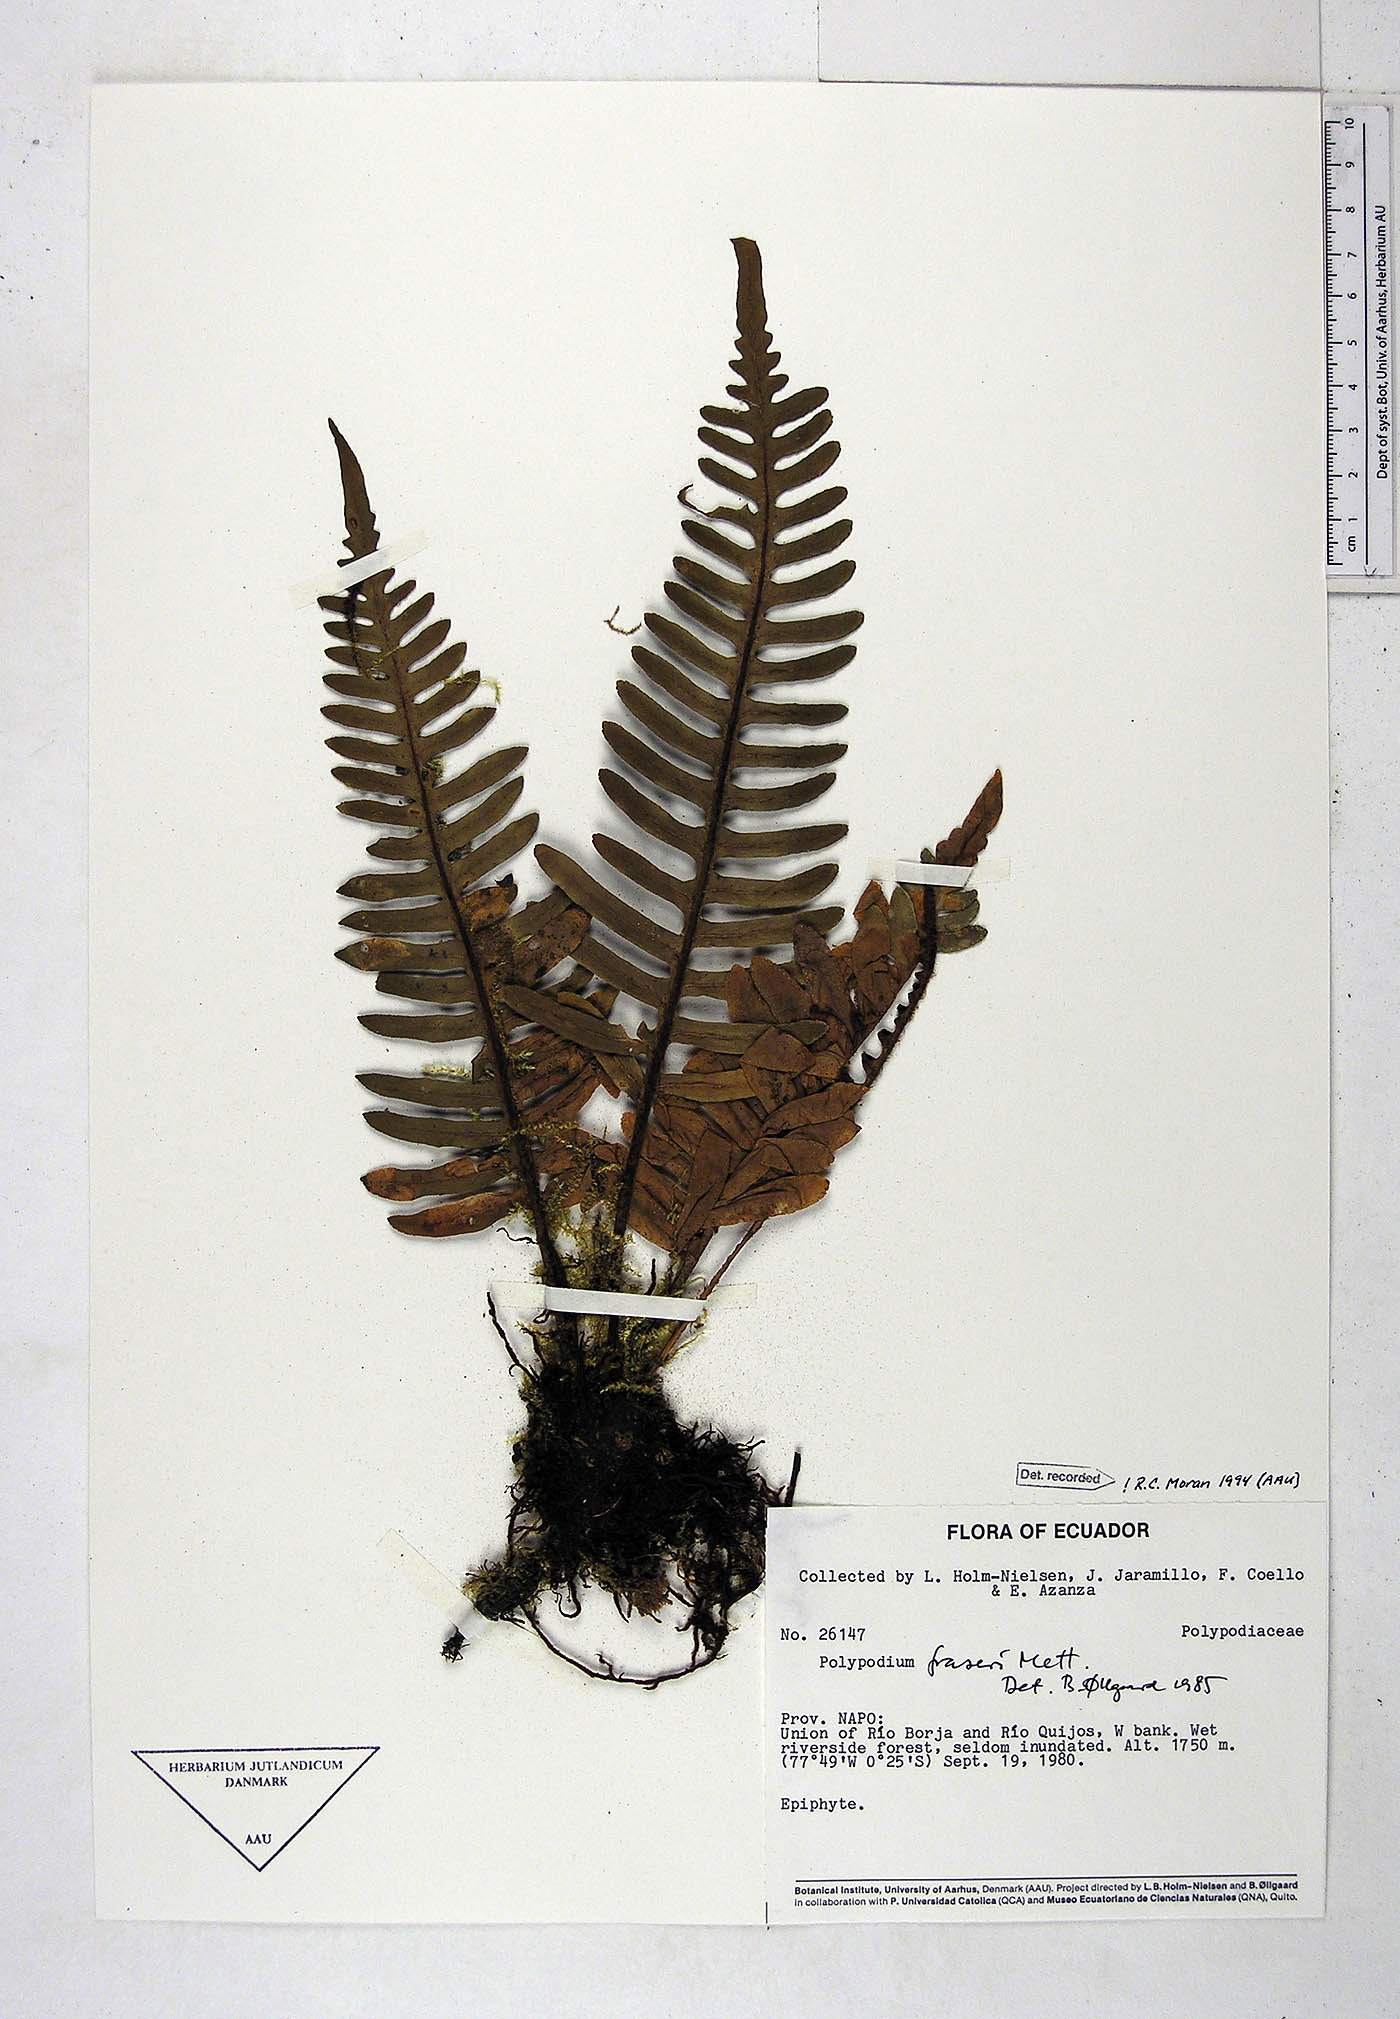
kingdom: Plantae
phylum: Tracheophyta
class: Polypodiopsida
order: Polypodiales
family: Polypodiaceae
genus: Pleopeltis
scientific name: Pleopeltis fraseri
